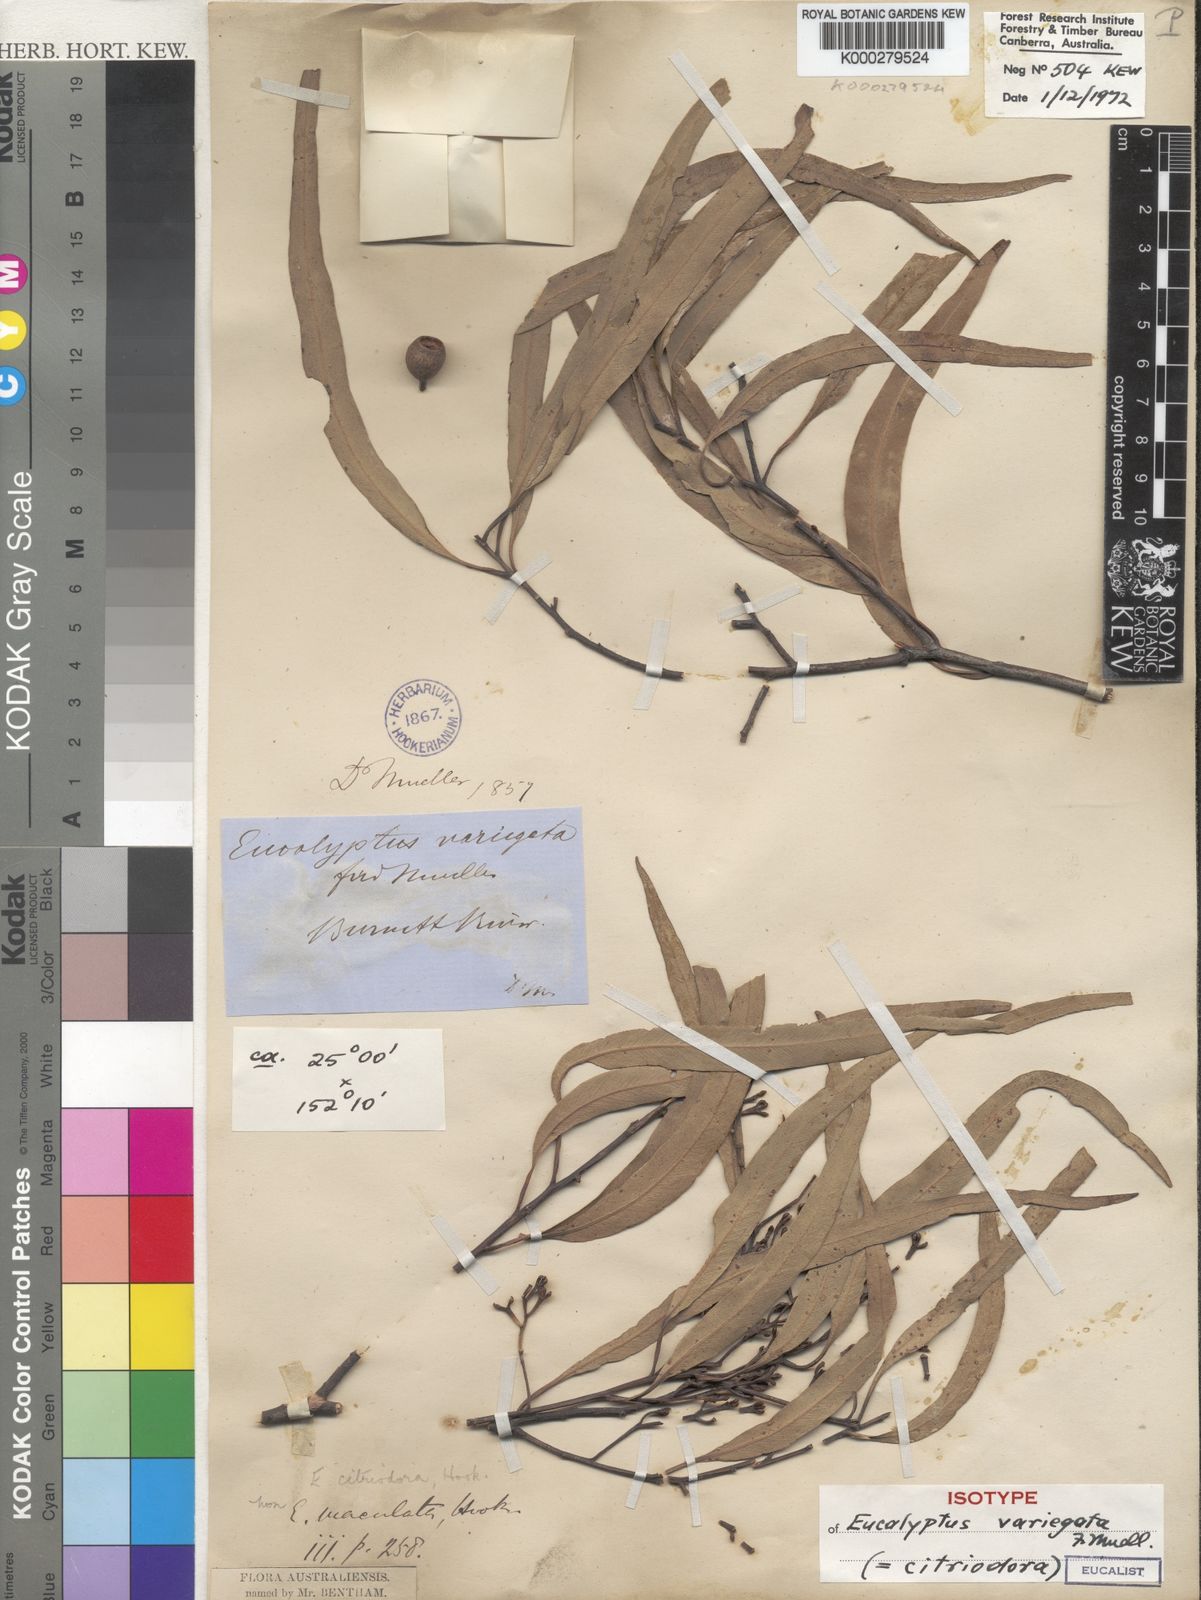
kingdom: Plantae
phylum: Tracheophyta
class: Magnoliopsida
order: Myrtales
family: Myrtaceae
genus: Corymbia
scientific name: Corymbia citriodora
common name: Lemonscented gum
